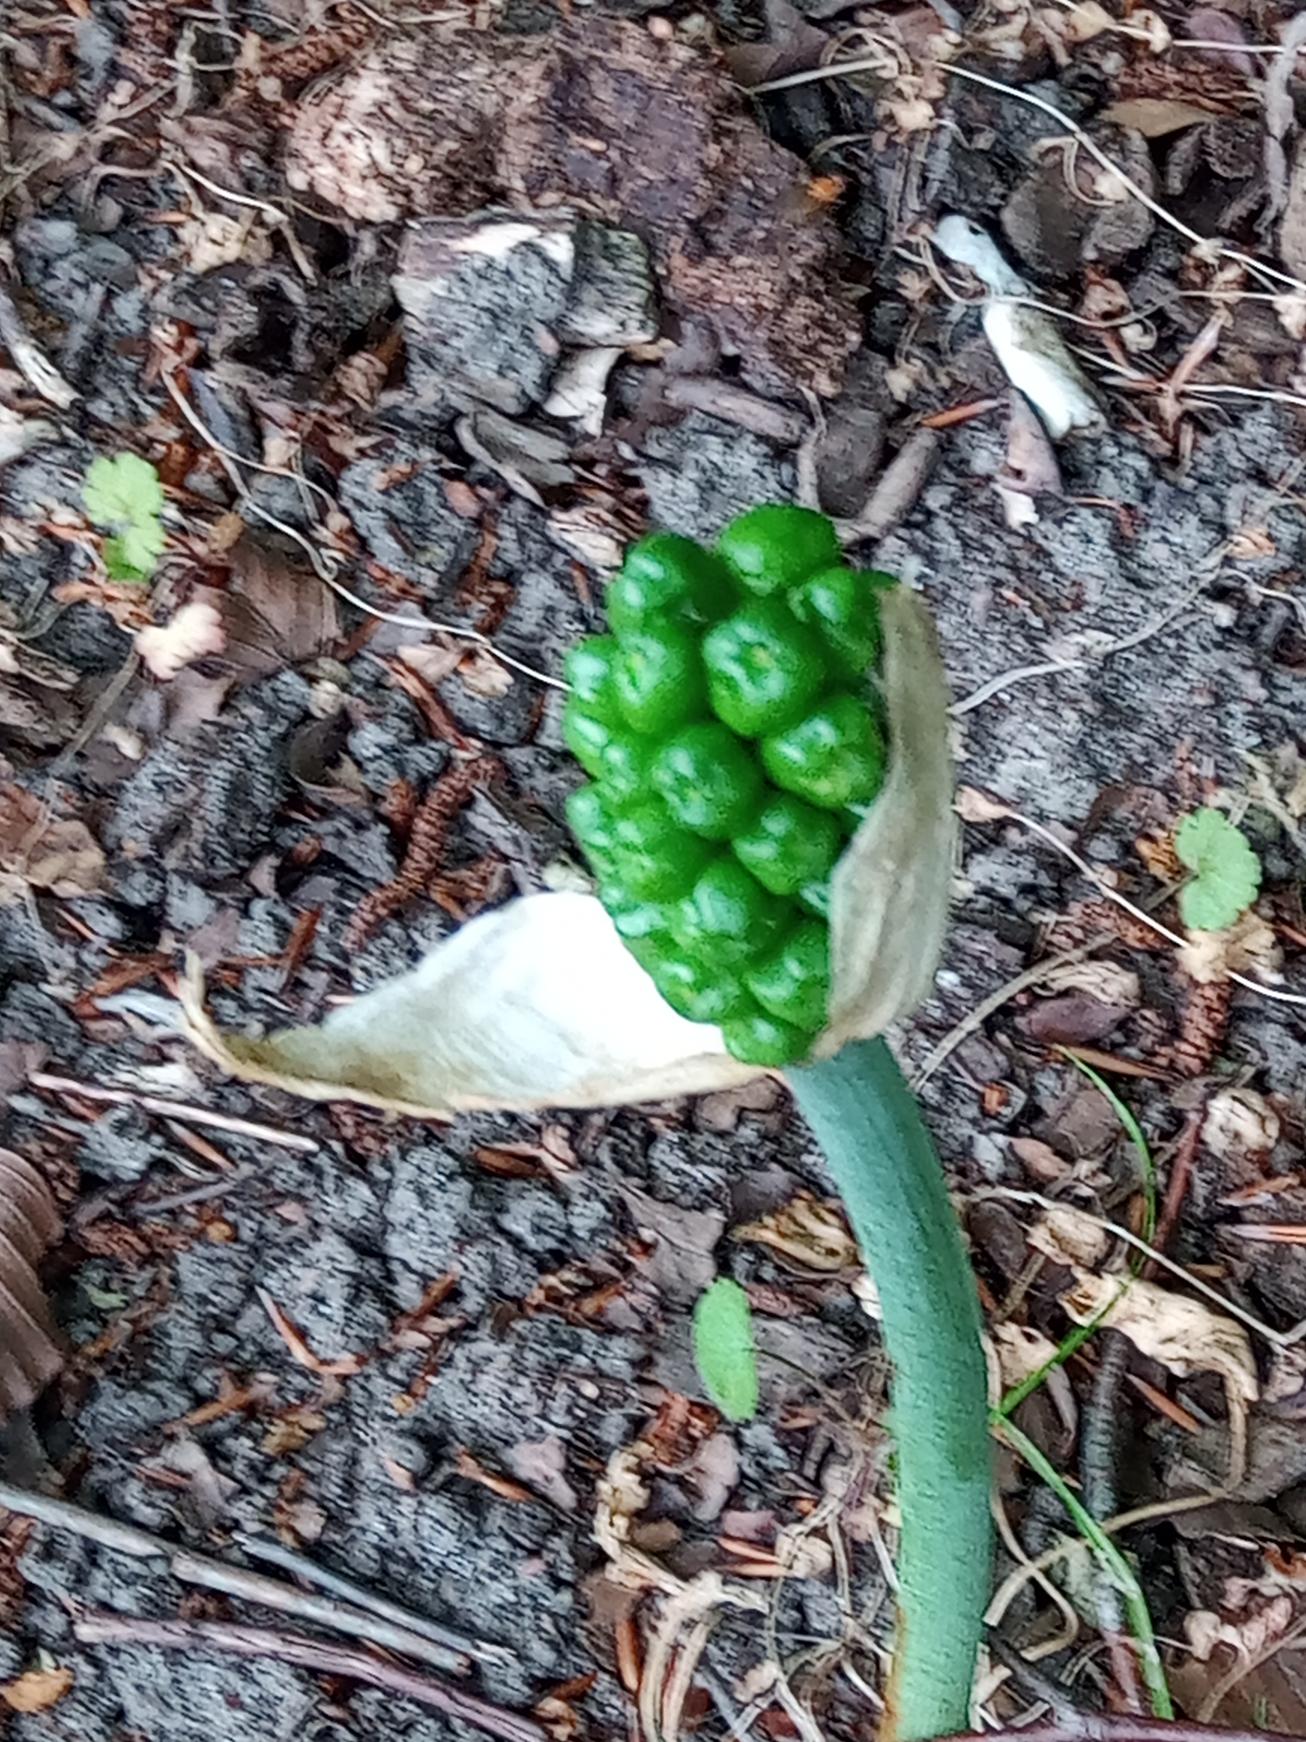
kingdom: Plantae
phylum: Tracheophyta
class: Liliopsida
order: Alismatales
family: Araceae
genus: Calla
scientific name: Calla palustris
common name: Kærmysse
